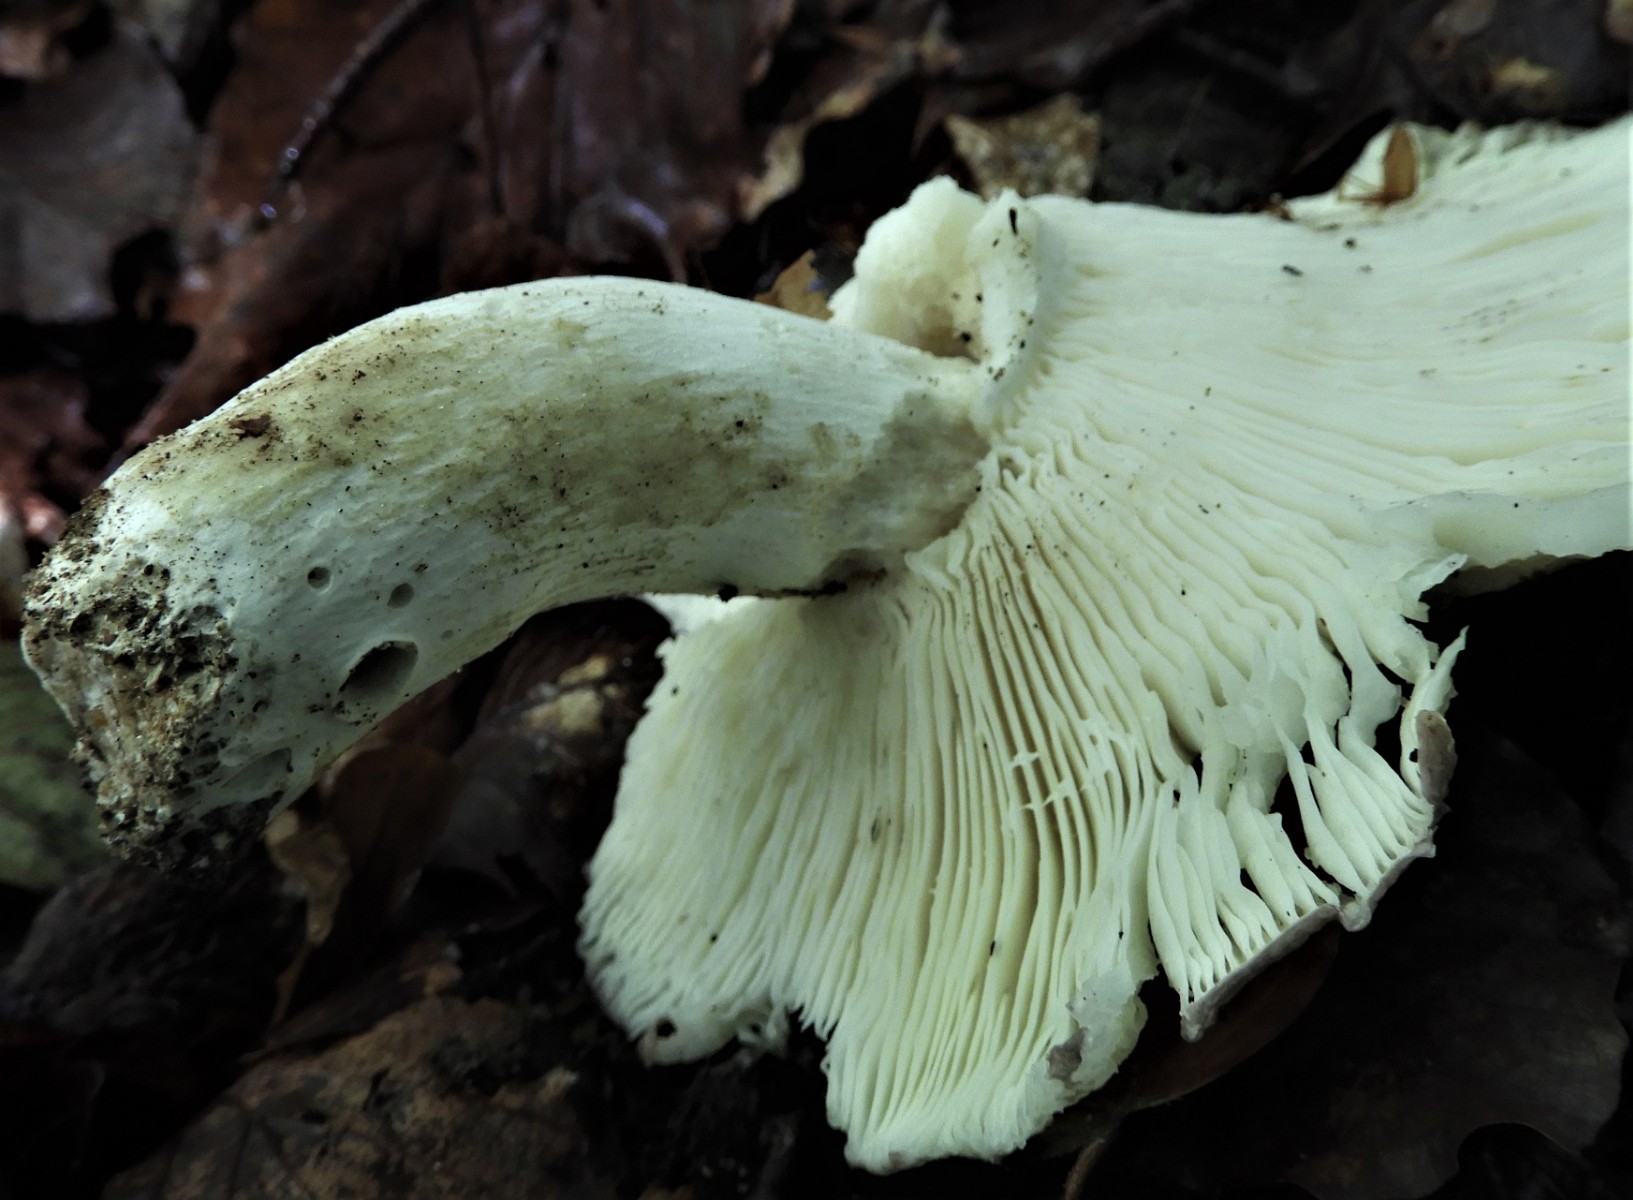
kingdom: Fungi
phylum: Basidiomycota
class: Agaricomycetes
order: Russulales
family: Russulaceae
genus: Russula
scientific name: Russula heterophylla
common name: gaffelbladet skørhat
